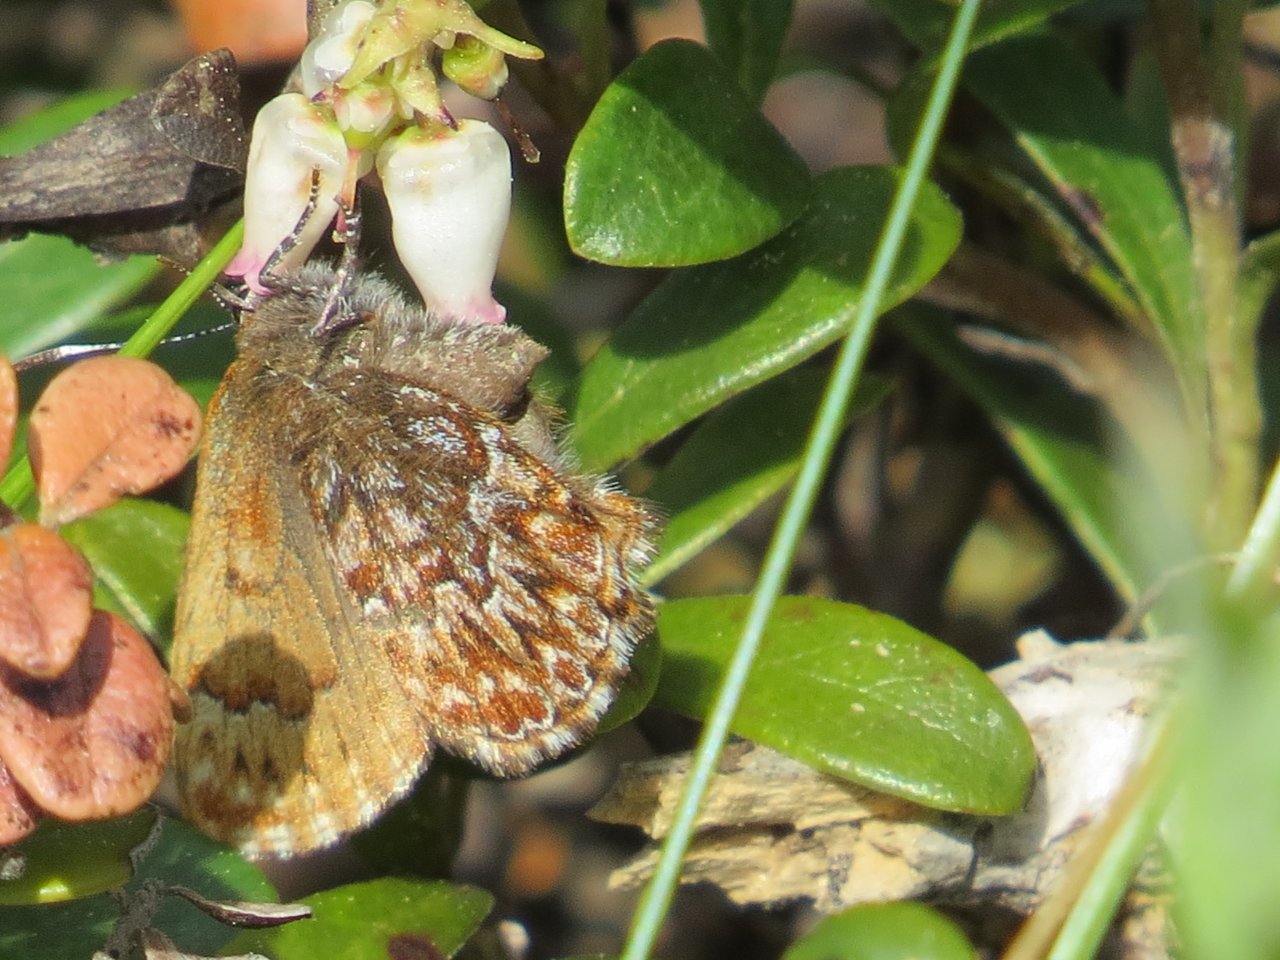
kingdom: Animalia
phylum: Arthropoda
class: Insecta
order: Lepidoptera
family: Lycaenidae
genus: Incisalia
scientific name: Incisalia niphon
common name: Eastern Pine Elfin
